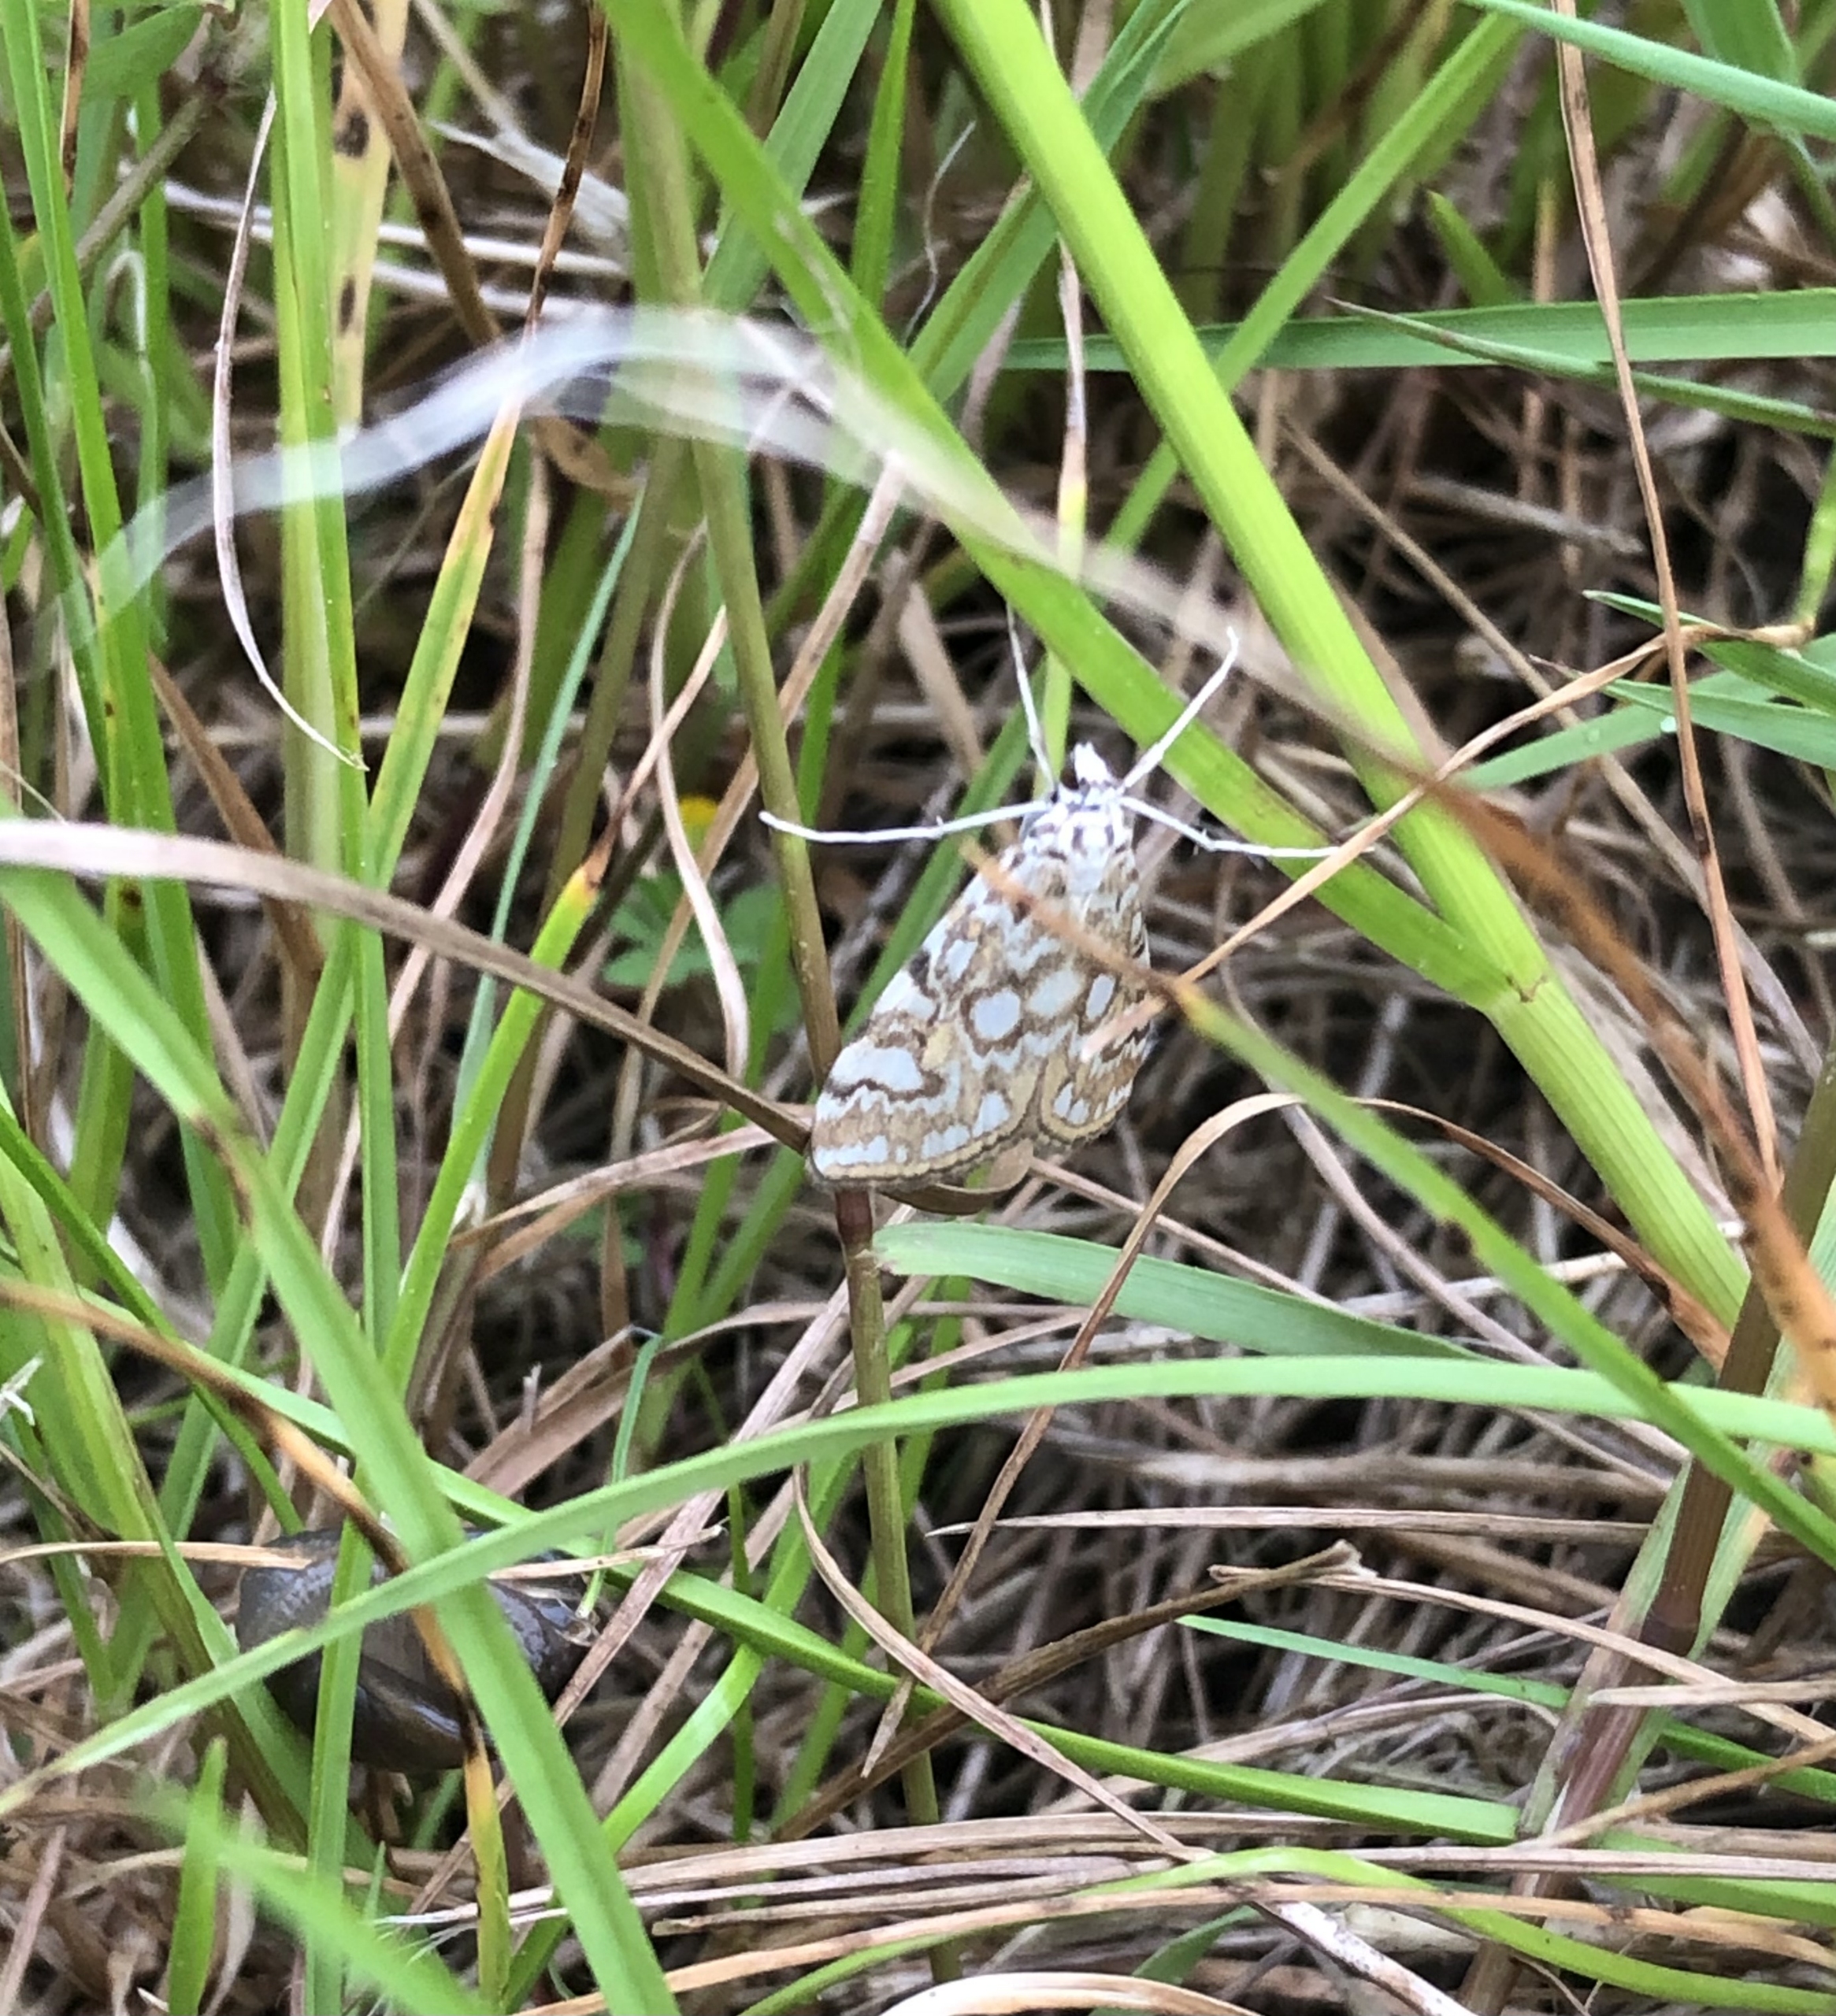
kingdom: Animalia
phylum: Arthropoda
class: Insecta
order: Lepidoptera
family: Crambidae
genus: Elophila
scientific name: Elophila nymphaeata
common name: Åkandehalvmøl
